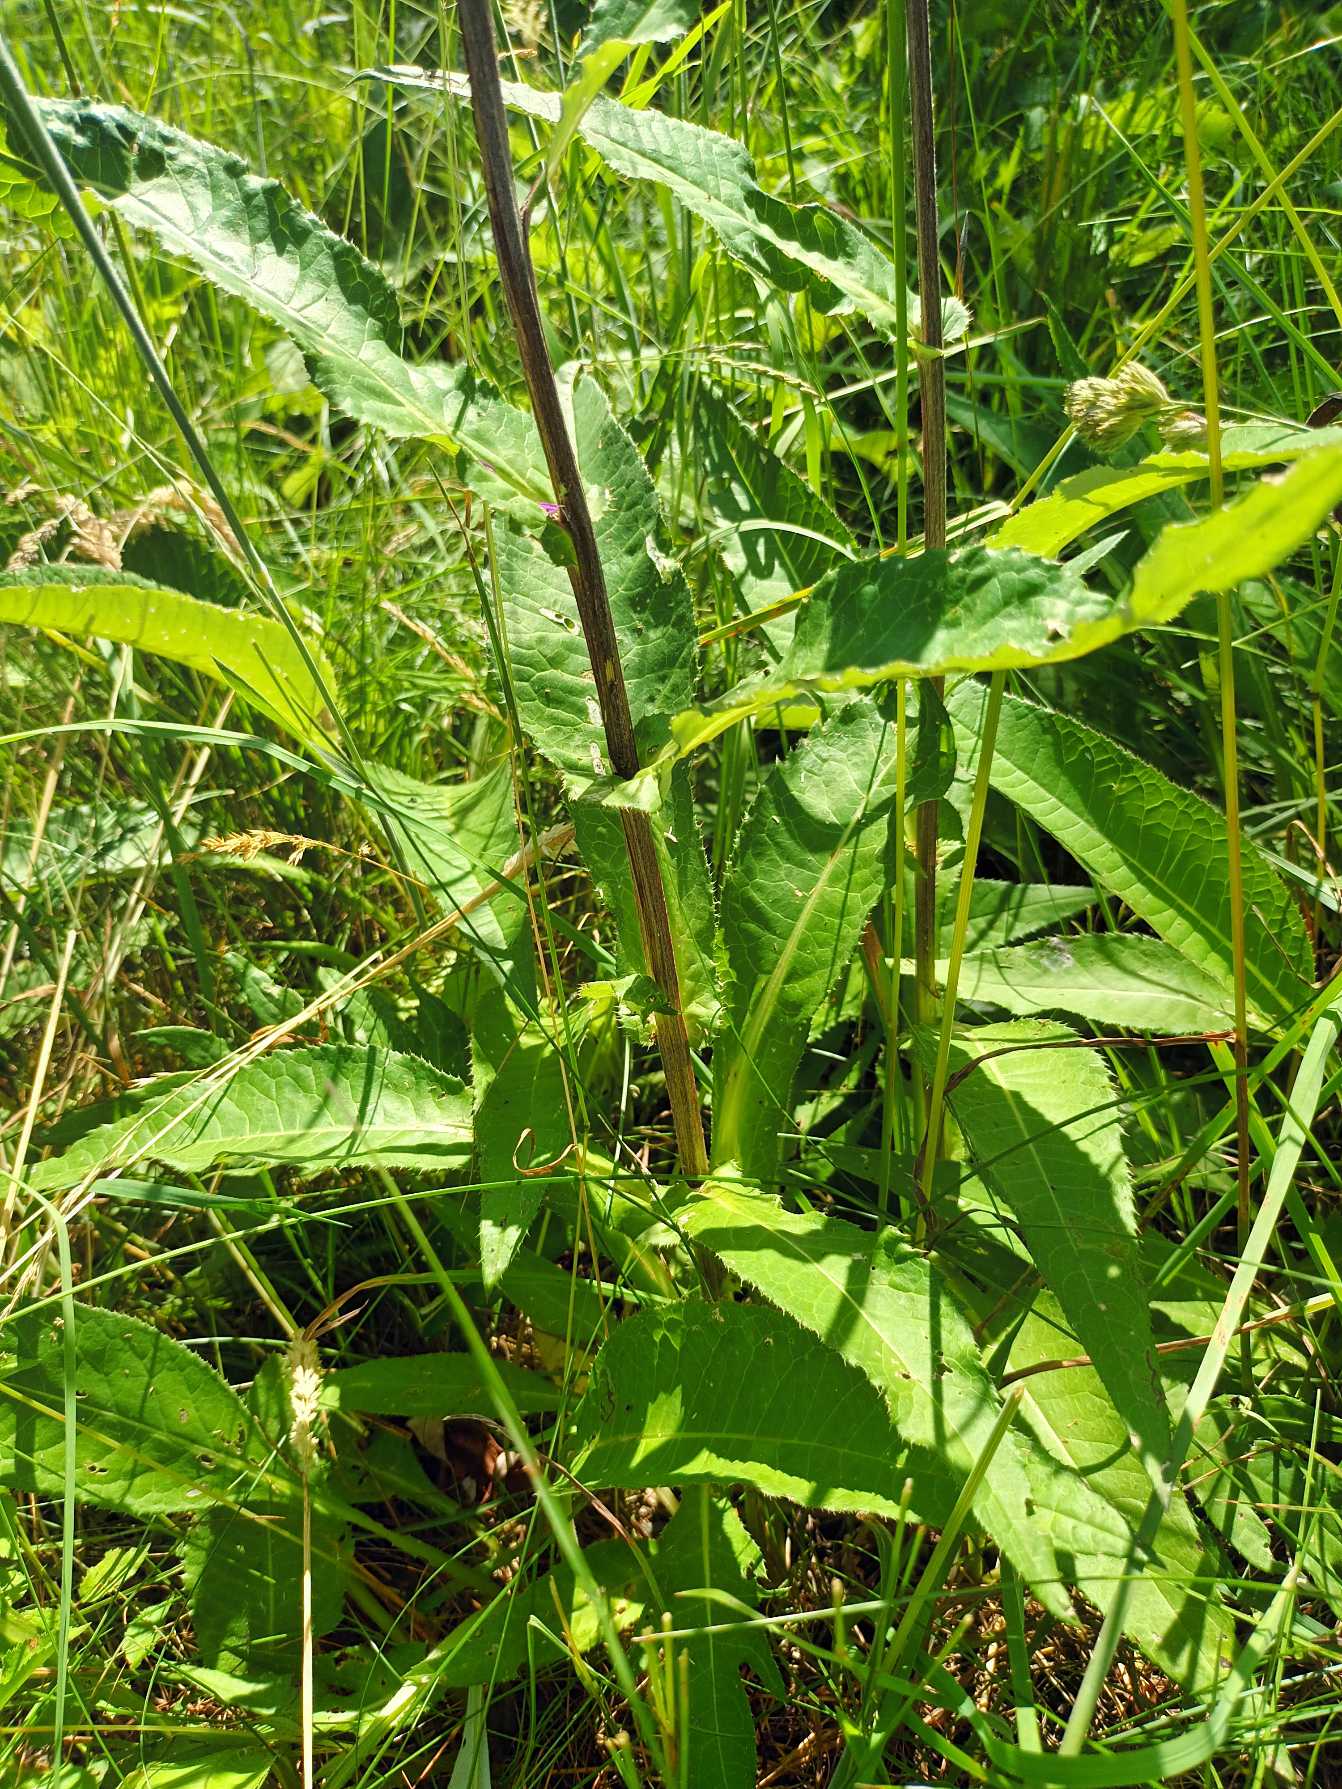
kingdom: Plantae
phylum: Tracheophyta
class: Magnoliopsida
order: Asterales
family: Asteraceae
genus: Cirsium
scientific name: Cirsium heterophyllum
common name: Forskelligbladet tidsel
